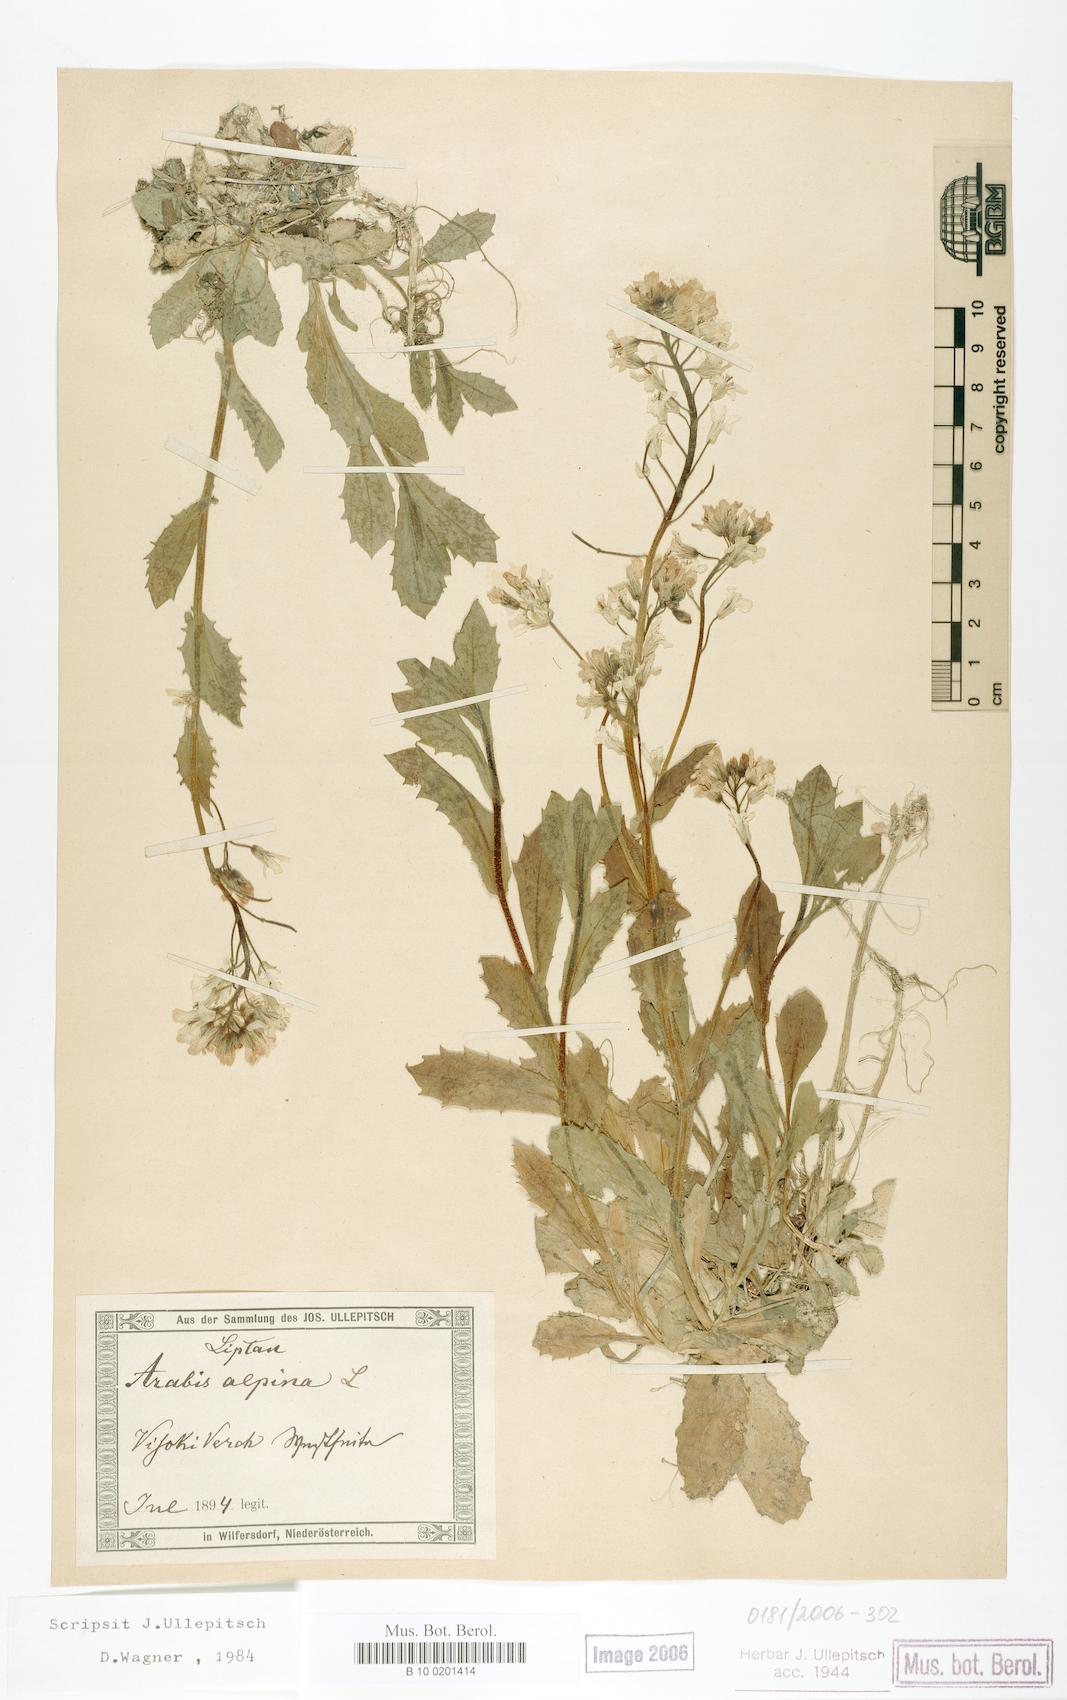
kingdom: Plantae
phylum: Tracheophyta
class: Magnoliopsida
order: Brassicales
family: Brassicaceae
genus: Arabis
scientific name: Arabis alpina
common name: Alpine rock-cress
